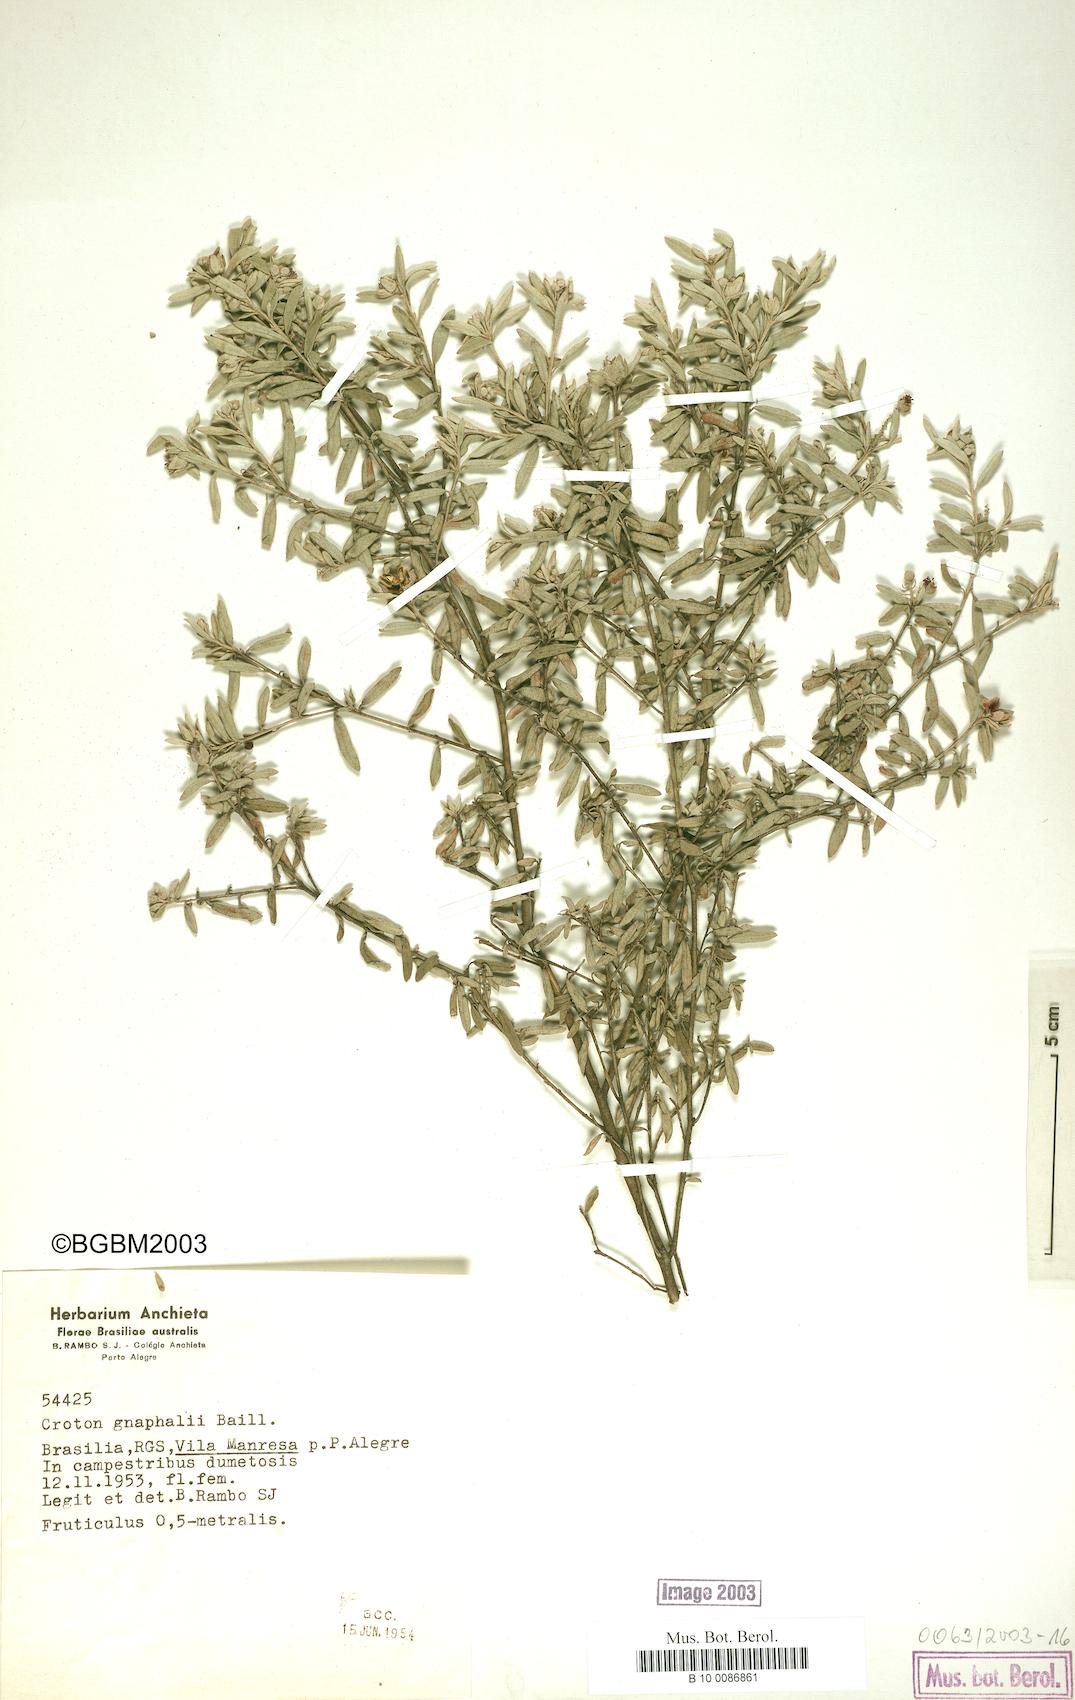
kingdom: Plantae
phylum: Tracheophyta
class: Magnoliopsida
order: Malpighiales
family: Euphorbiaceae
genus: Croton
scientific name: Croton gnaphalii
